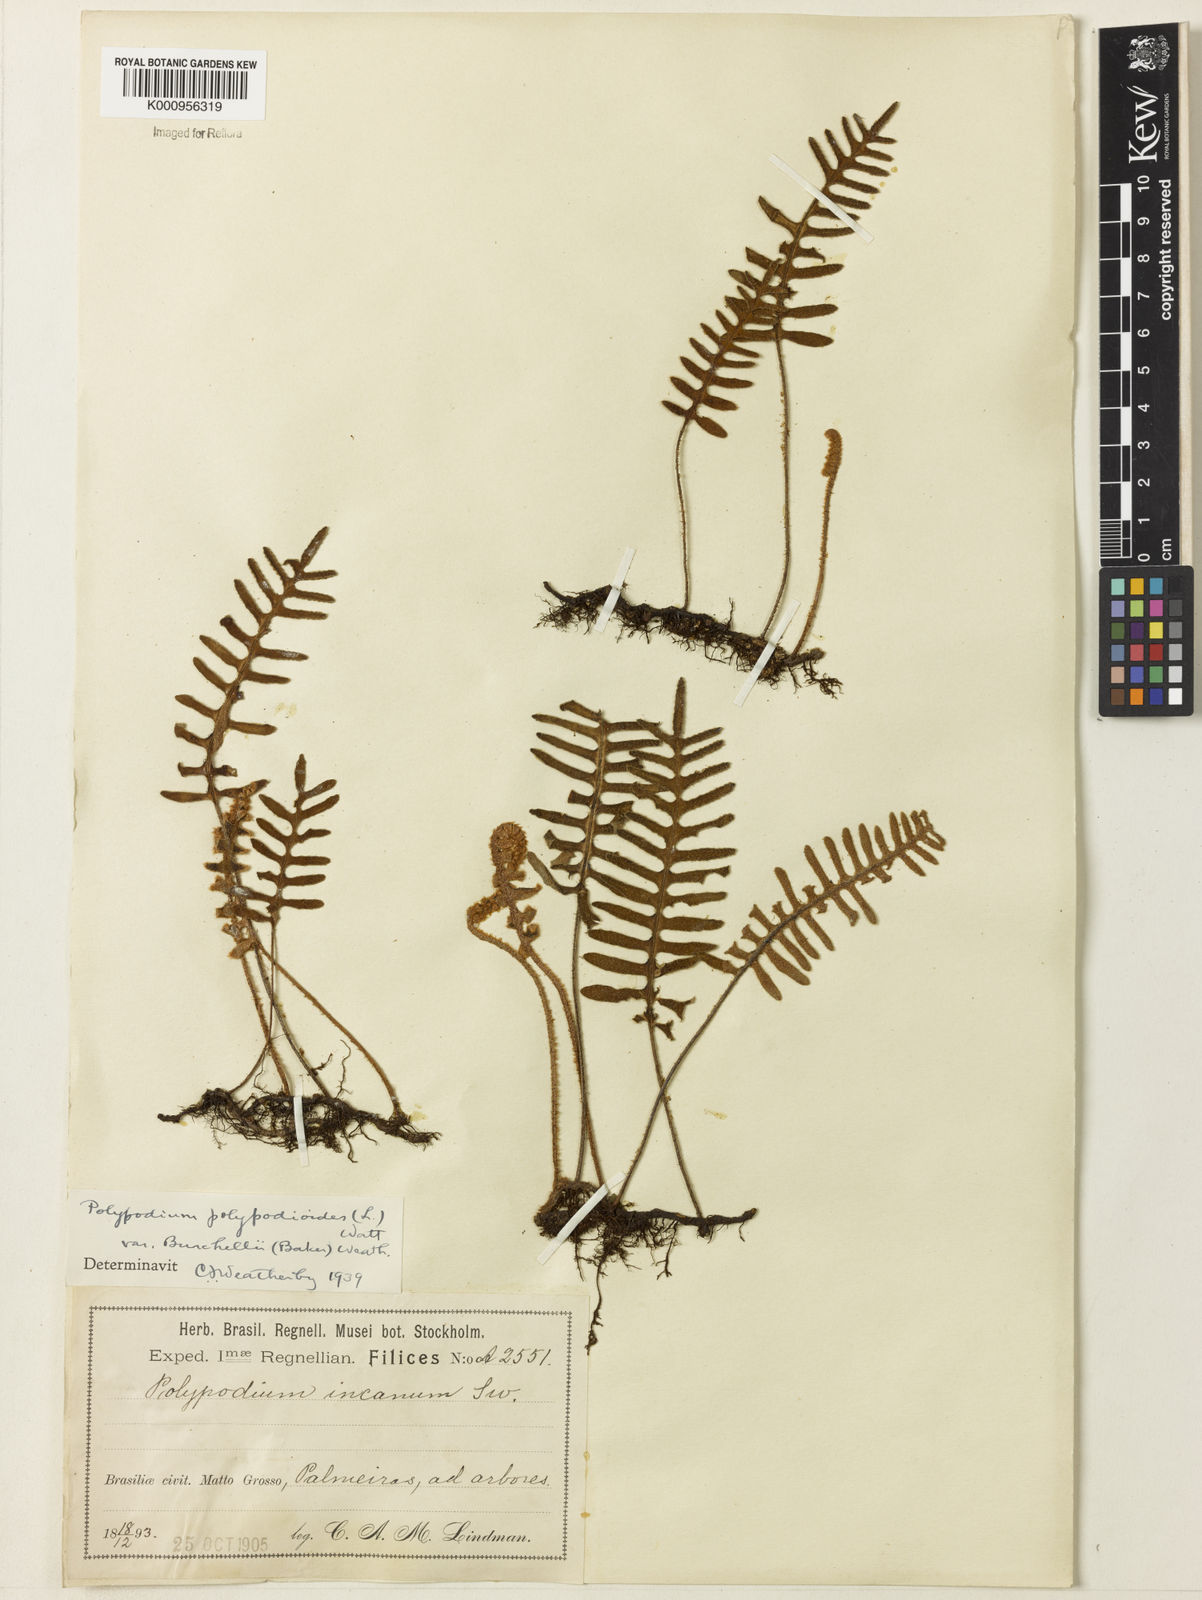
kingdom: Plantae
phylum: Tracheophyta
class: Polypodiopsida
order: Polypodiales
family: Polypodiaceae
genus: Pleopeltis
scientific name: Pleopeltis burchellii
